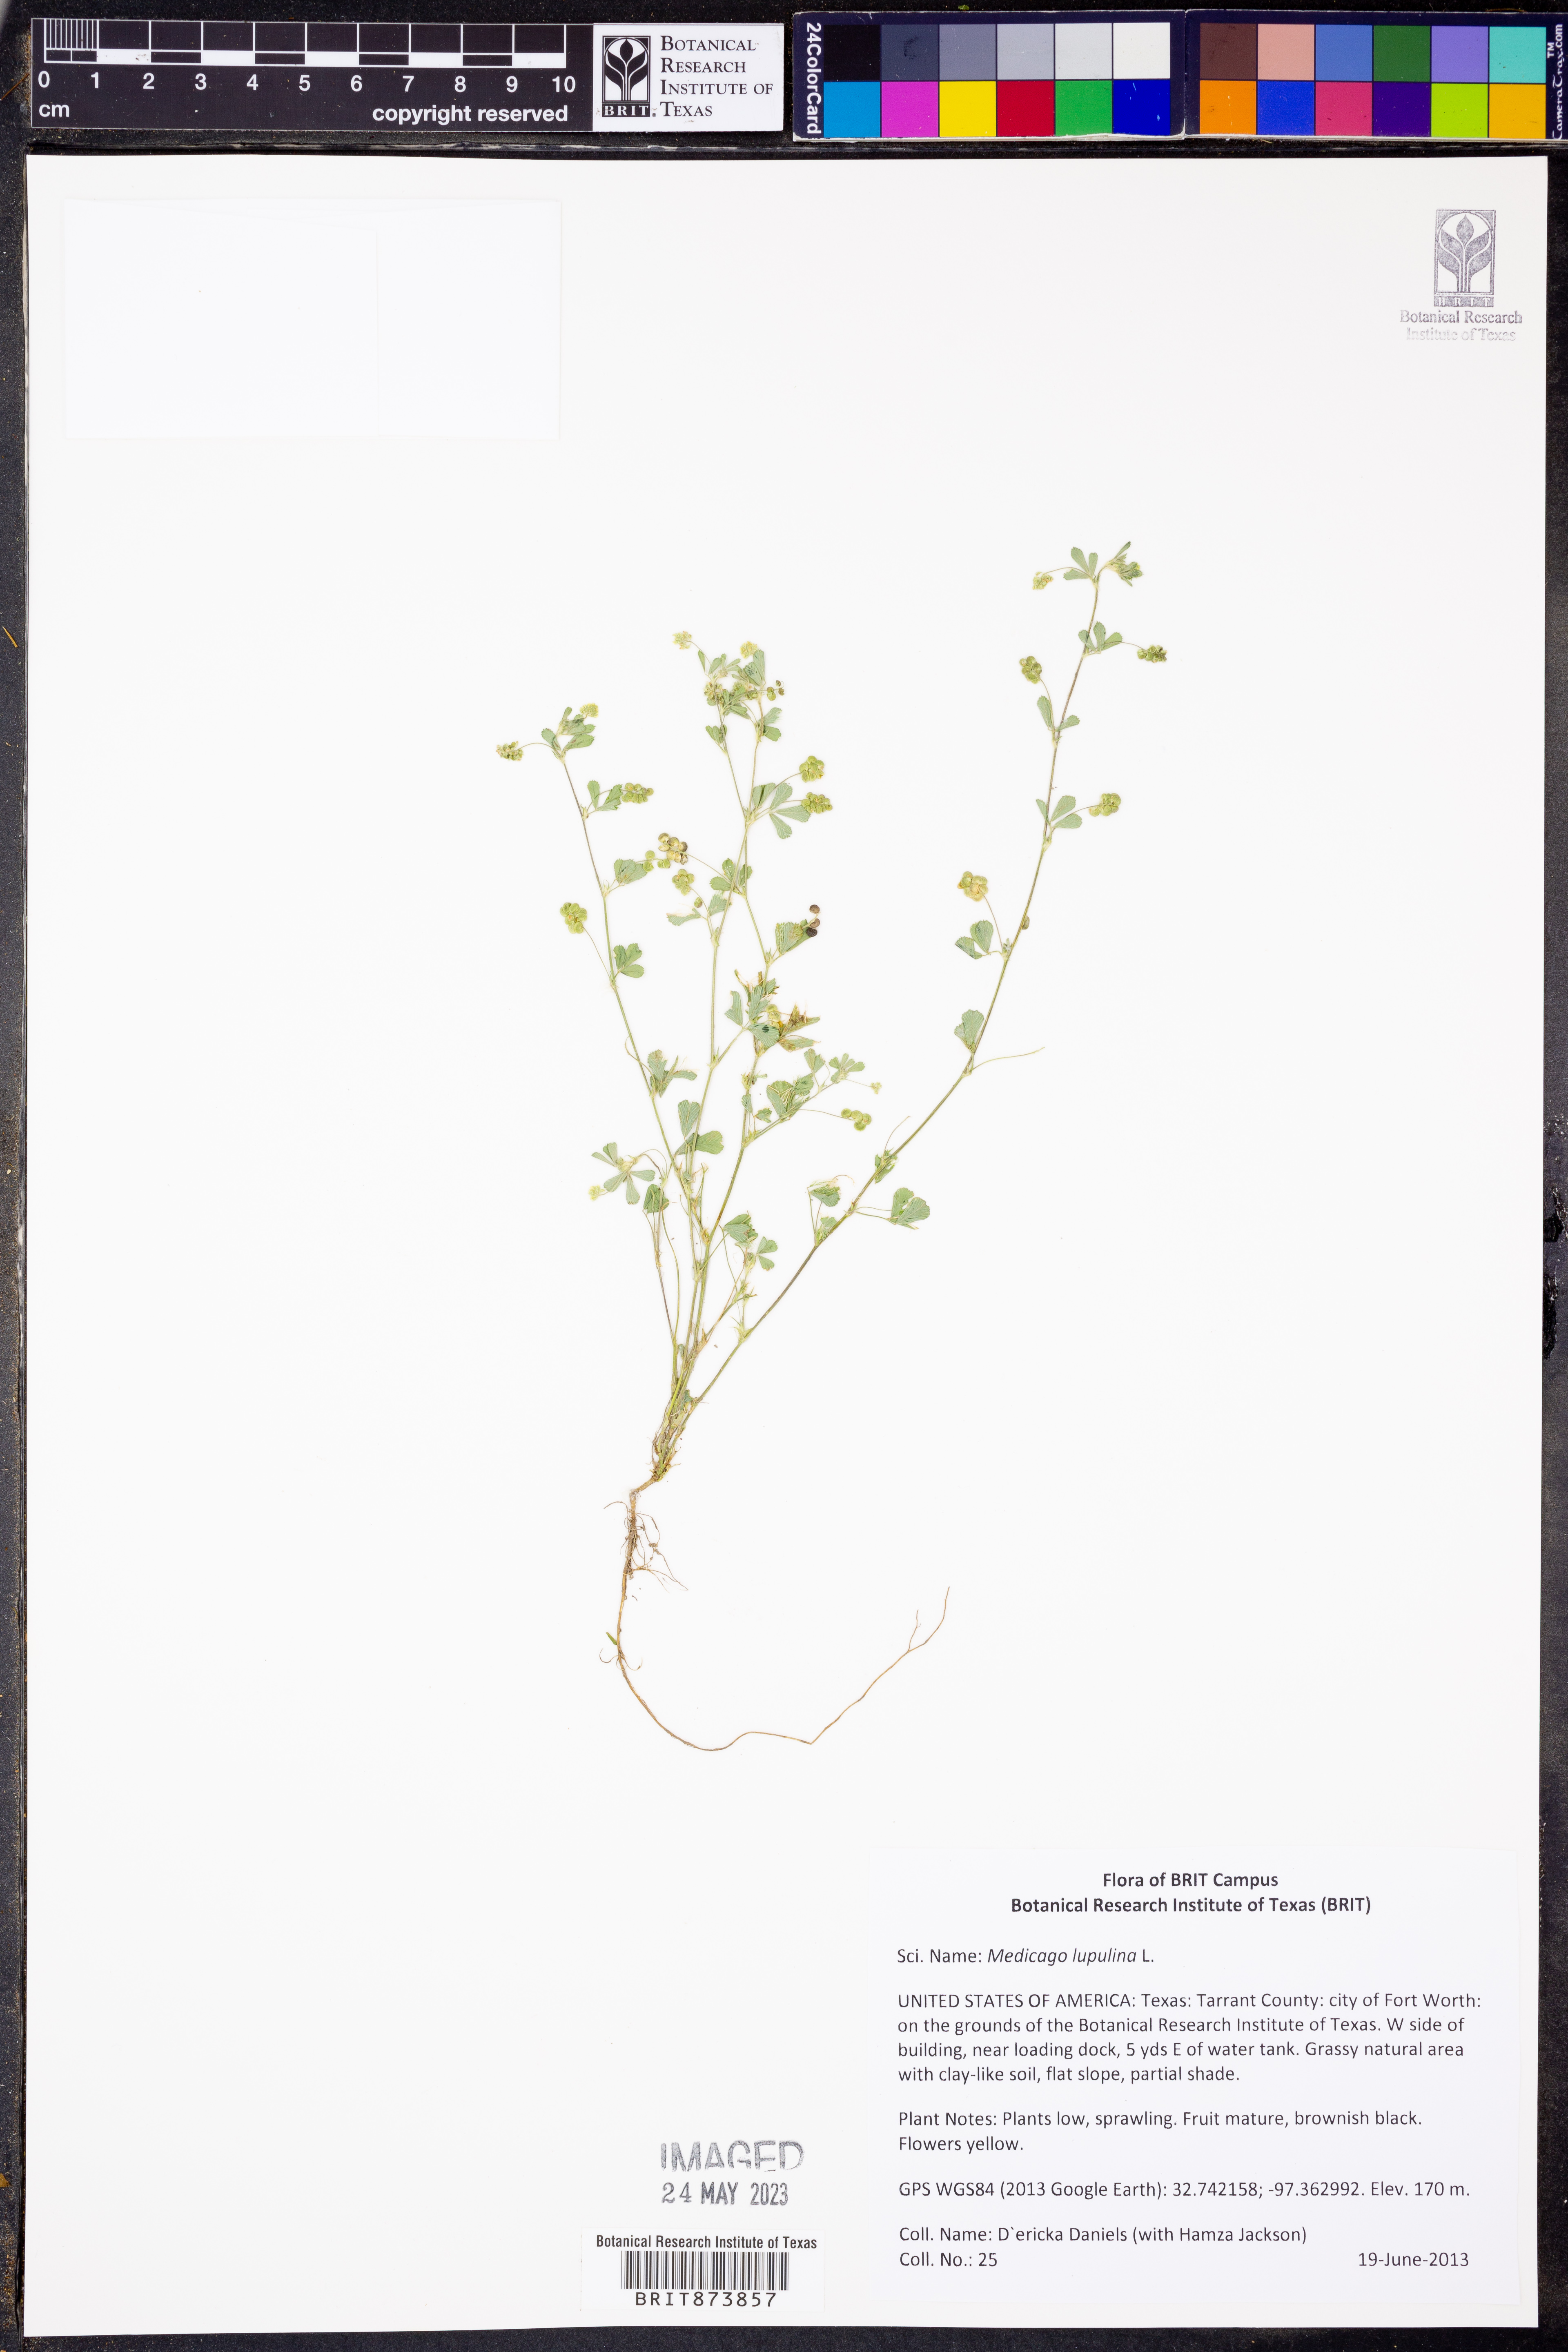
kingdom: Plantae
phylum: Tracheophyta
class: Magnoliopsida
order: Fabales
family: Fabaceae
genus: Medicago
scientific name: Medicago lupulina
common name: Black medick
